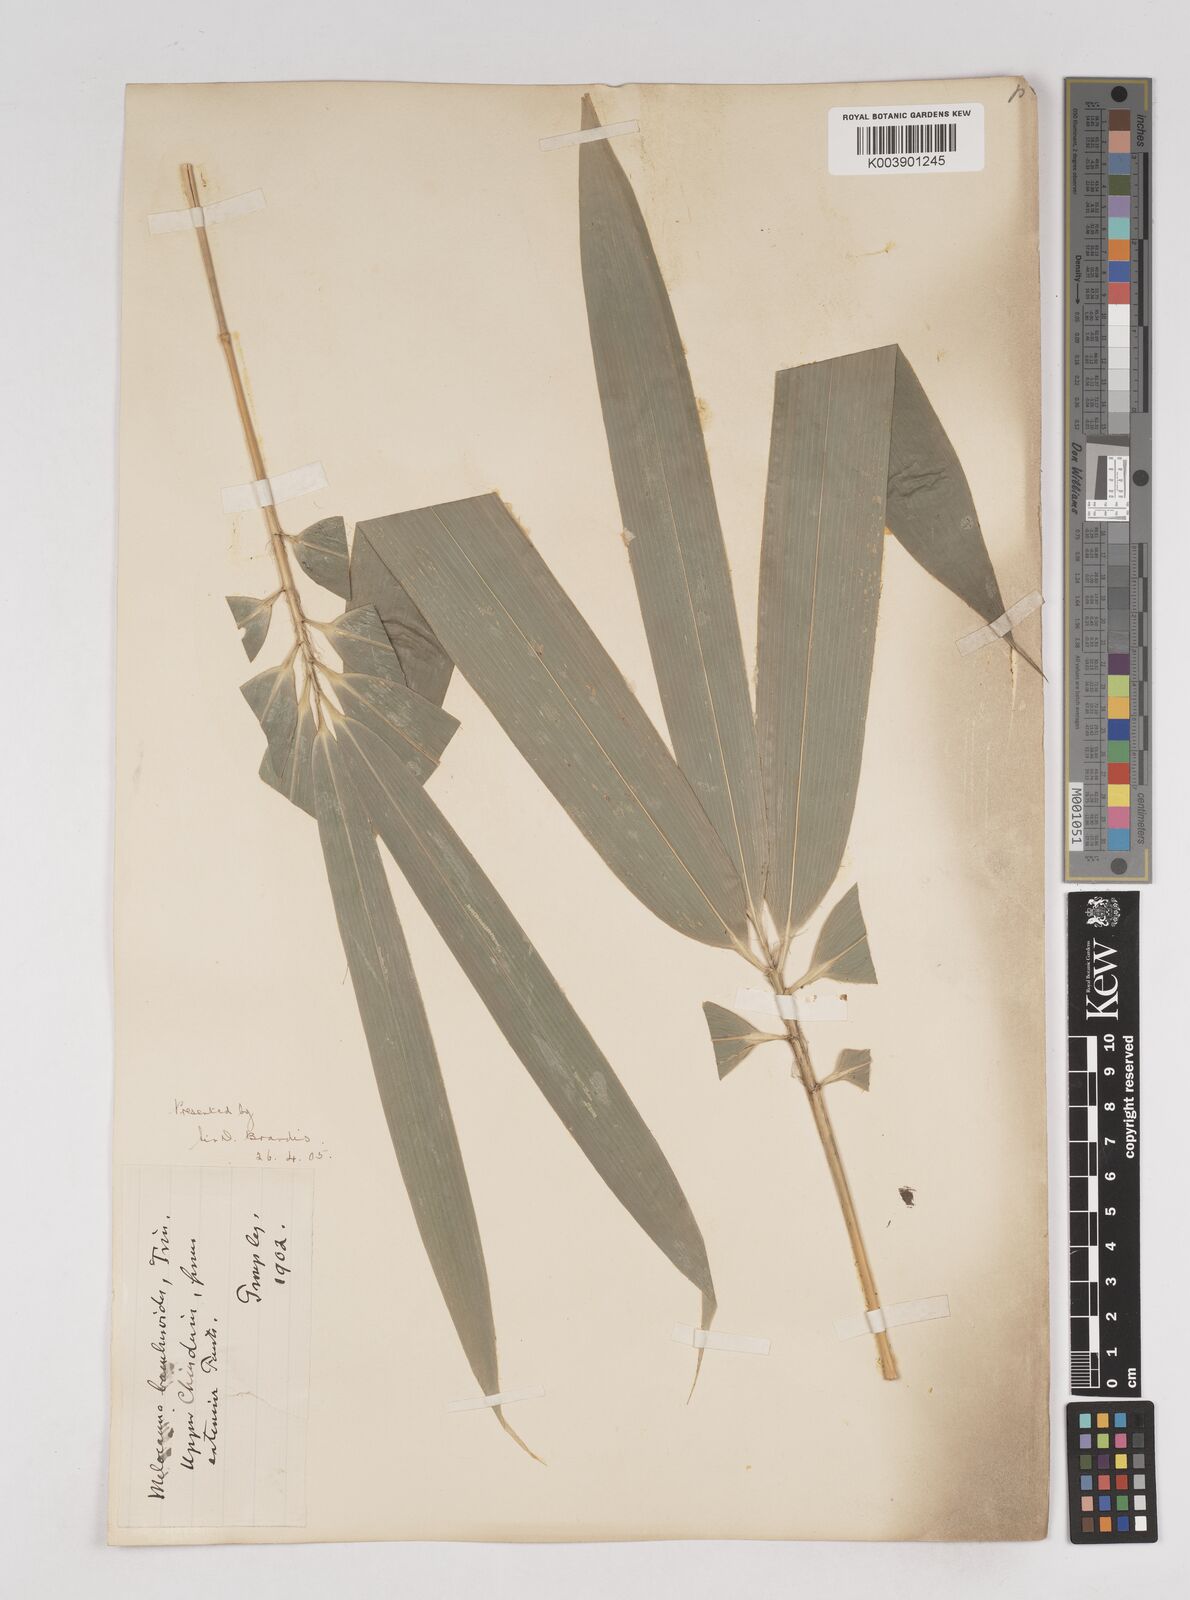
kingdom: Plantae
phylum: Tracheophyta
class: Liliopsida
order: Poales
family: Poaceae
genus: Melocanna
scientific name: Melocanna baccifera
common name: Berry bamboo
